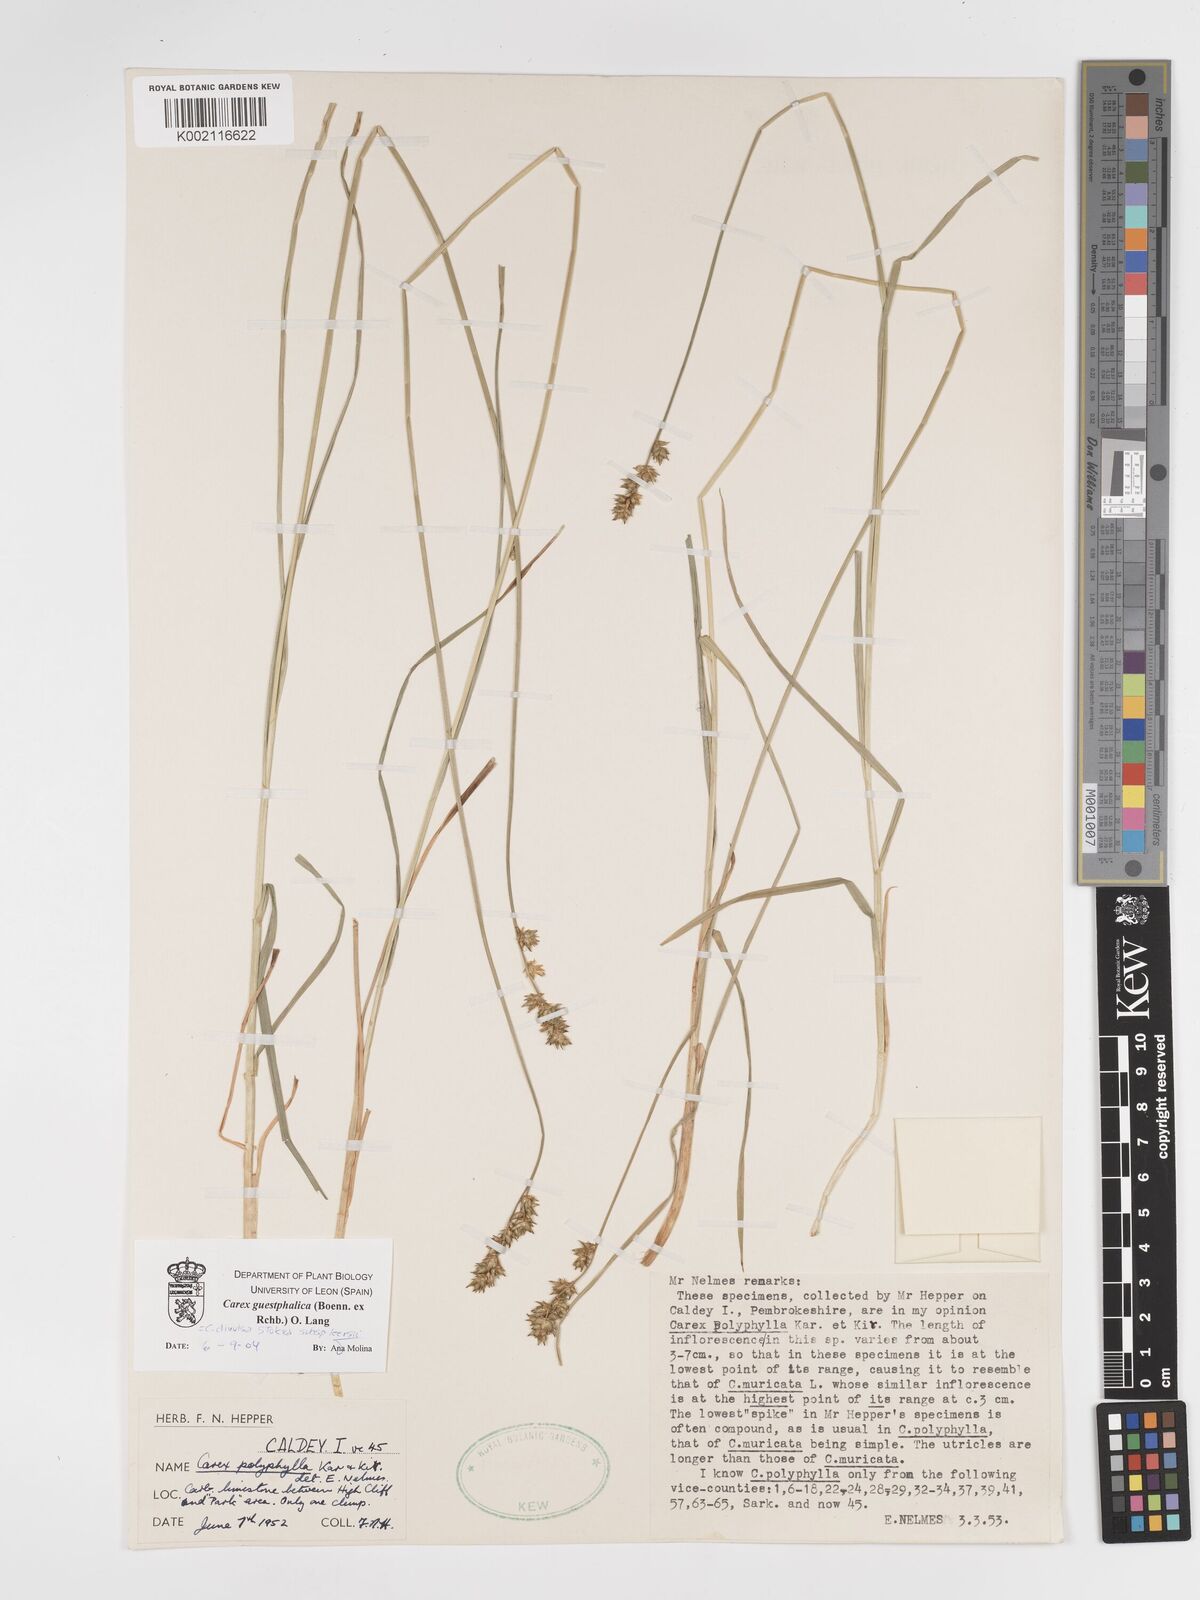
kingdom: Plantae
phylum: Tracheophyta
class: Liliopsida
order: Poales
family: Cyperaceae
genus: Carex
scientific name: Carex divulsa
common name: Grassland sedge
